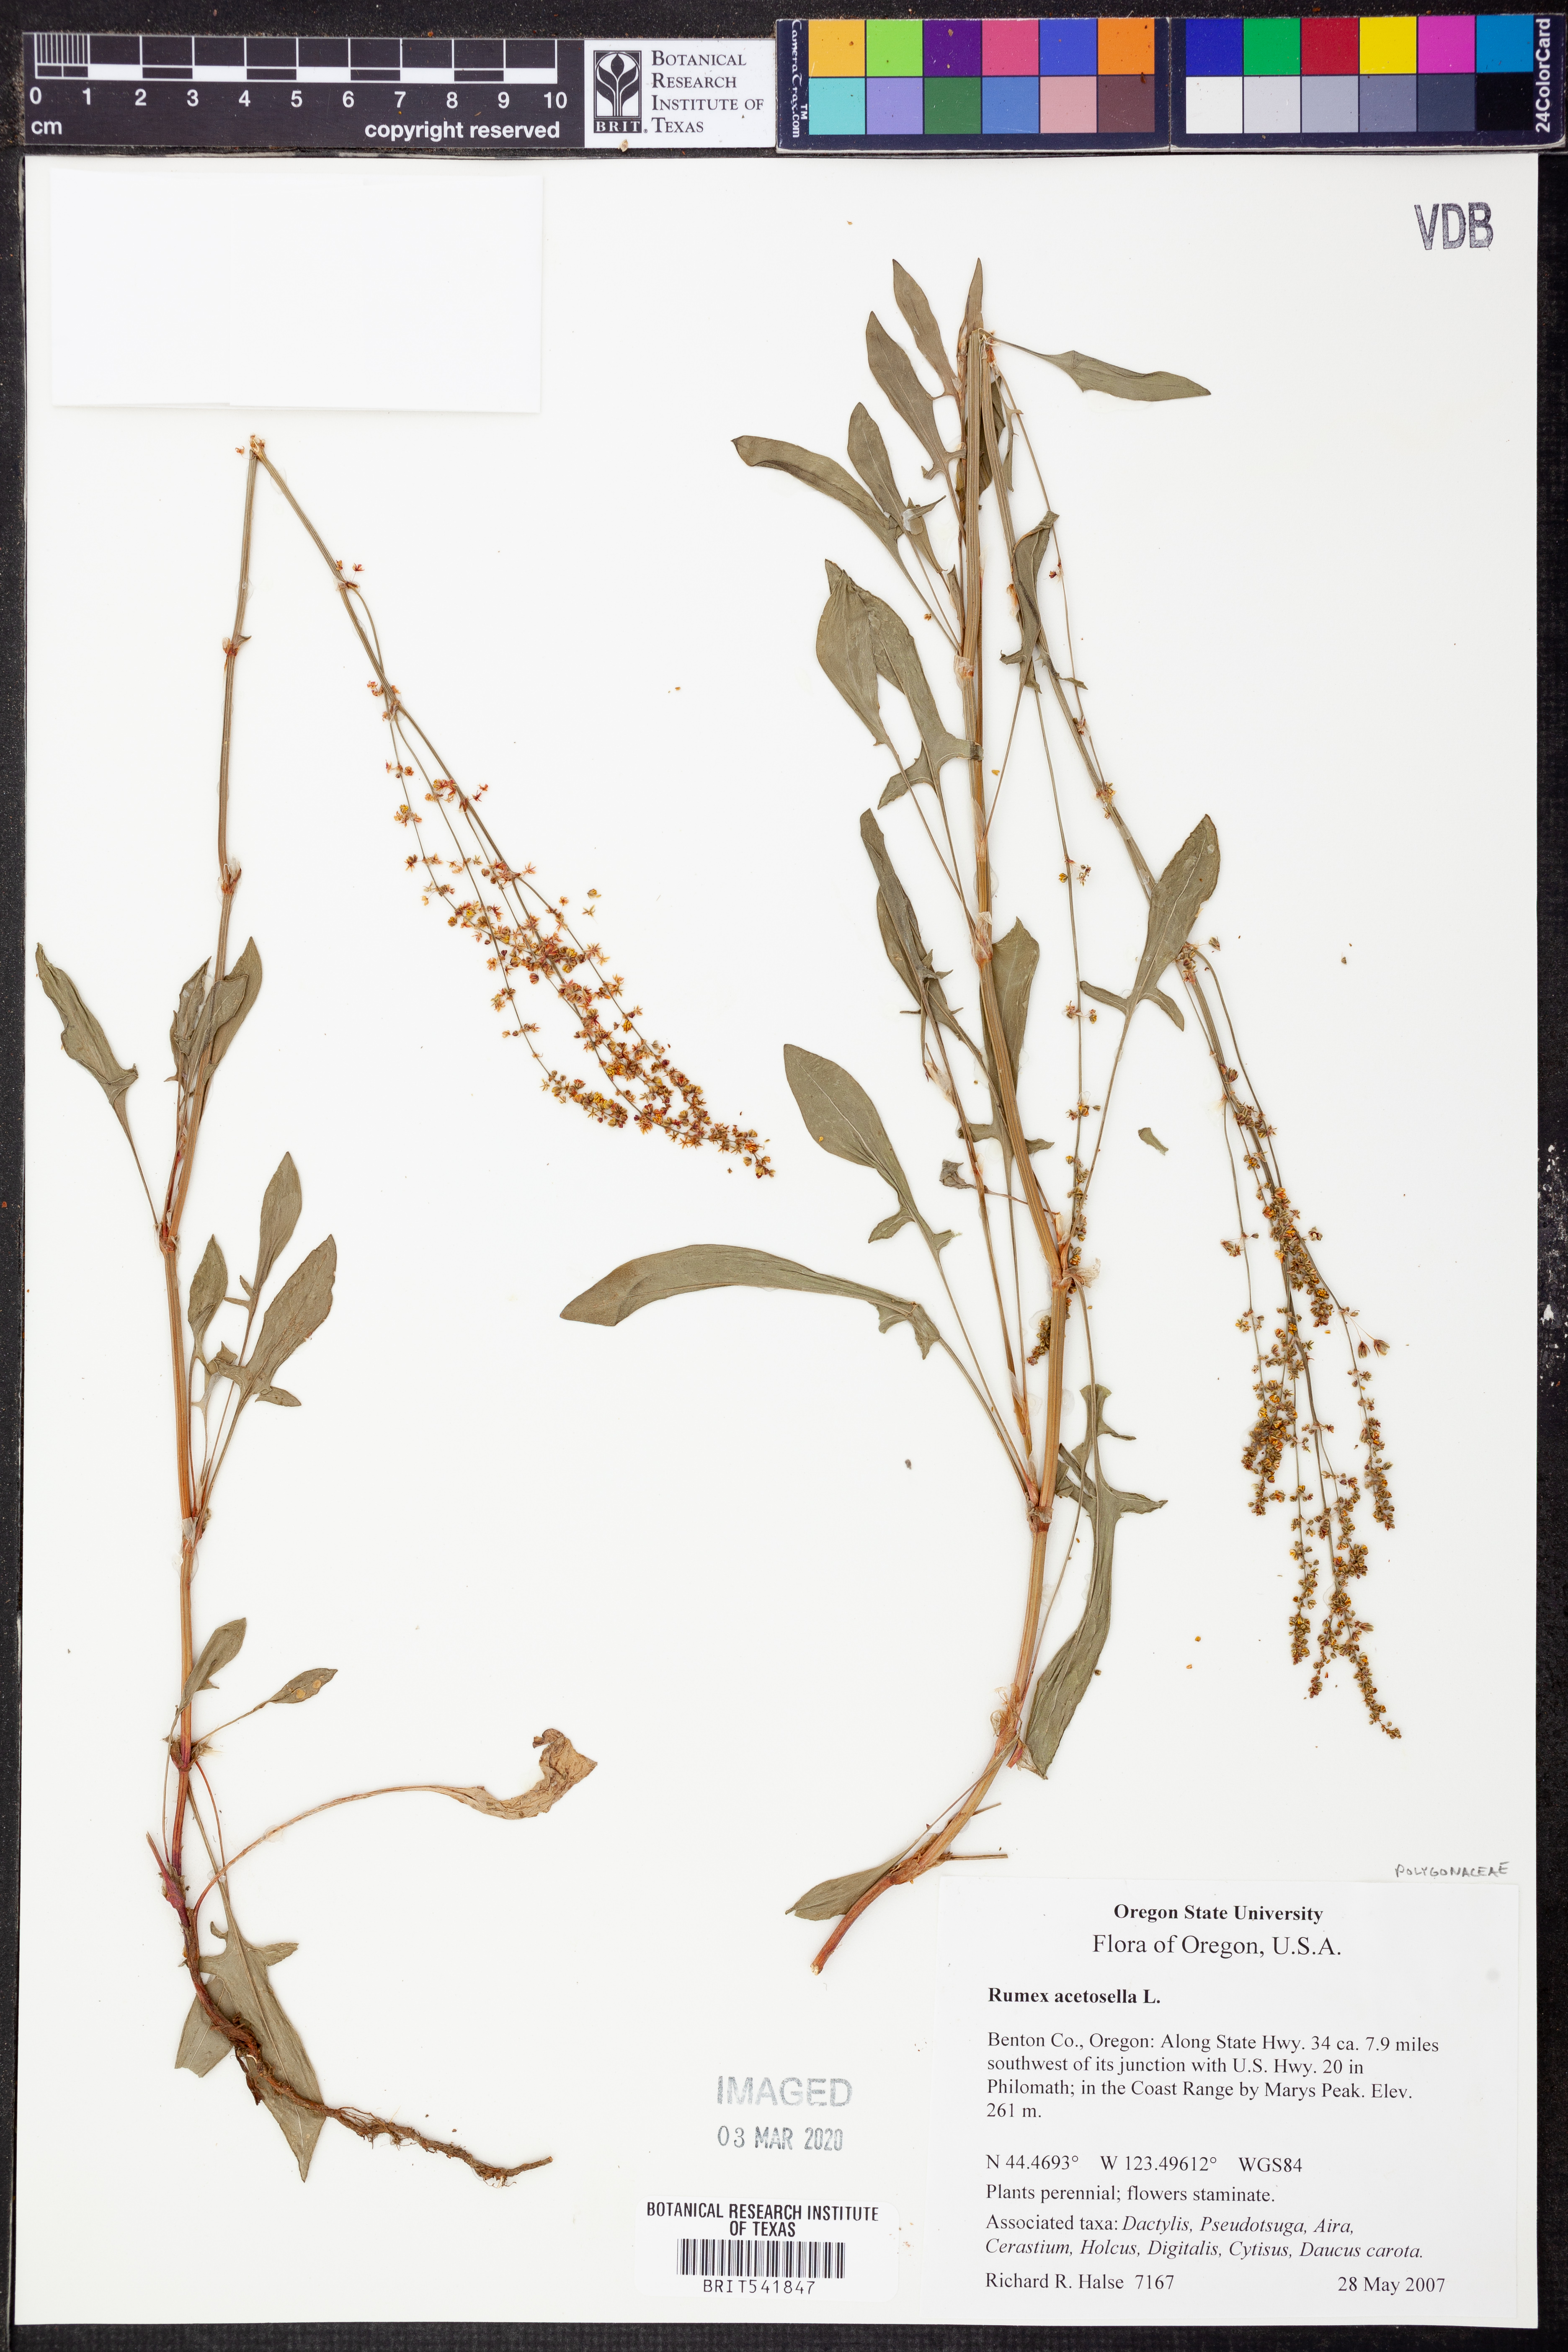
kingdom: Plantae
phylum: Tracheophyta
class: Magnoliopsida
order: Caryophyllales
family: Polygonaceae
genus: Rumex
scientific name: Rumex acetosella
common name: Common sheep sorrel
